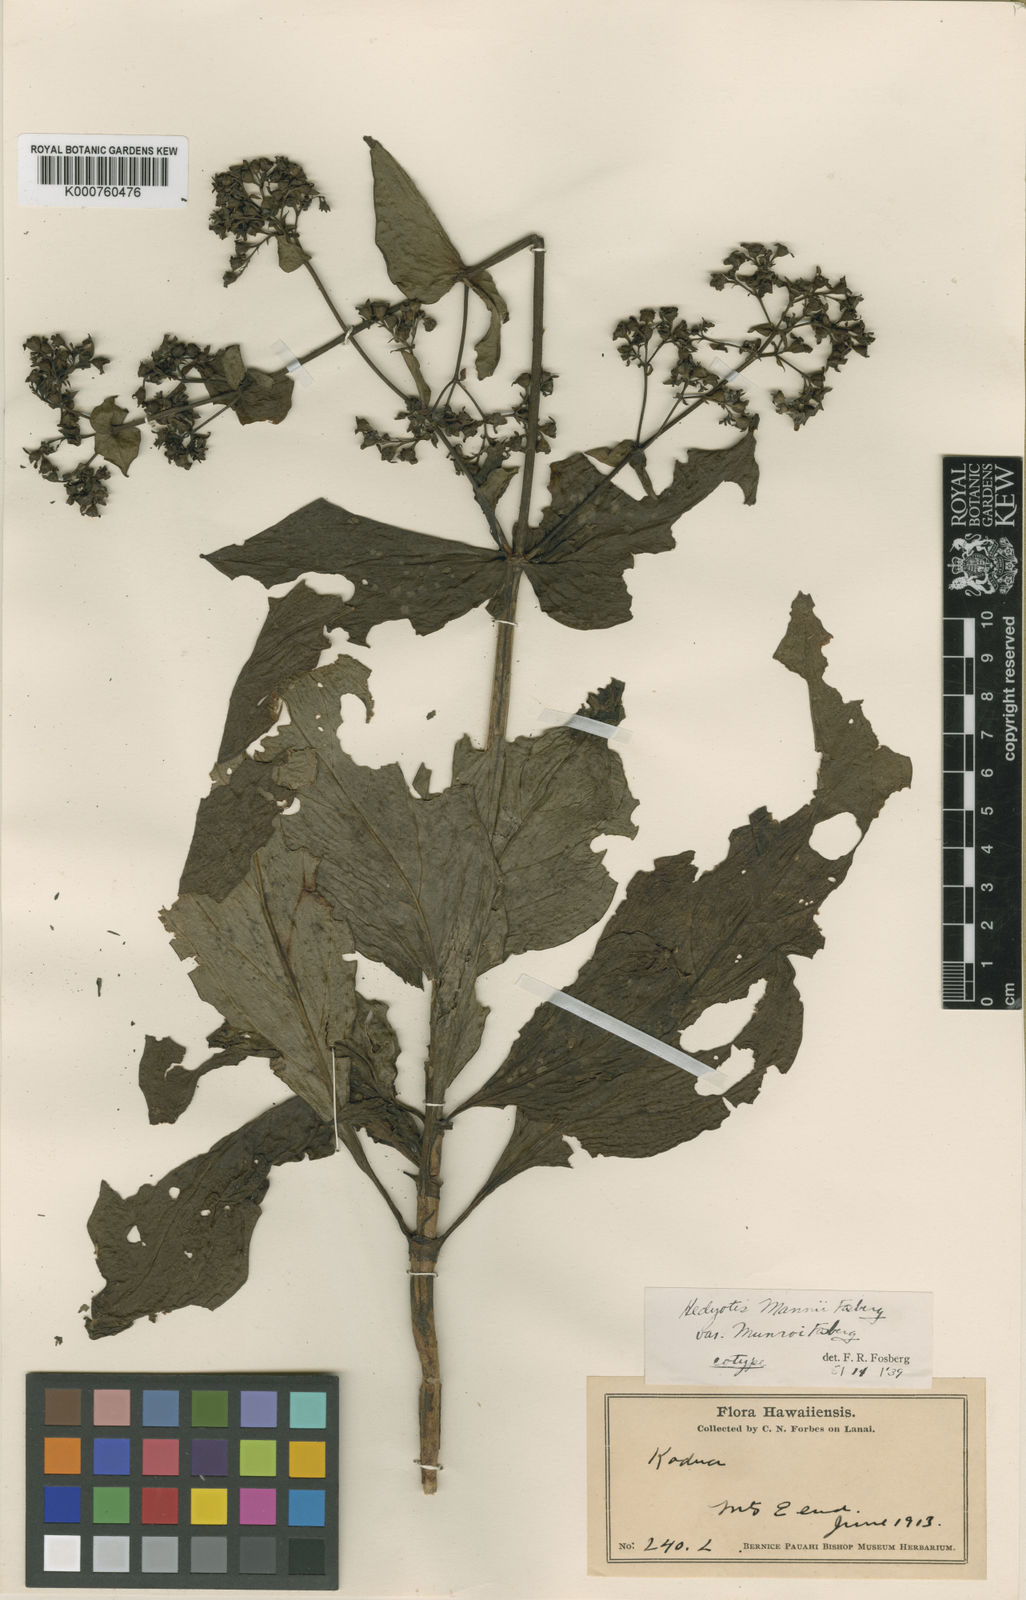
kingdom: Plantae
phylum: Tracheophyta
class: Magnoliopsida
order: Gentianales
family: Rubiaceae
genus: Kadua
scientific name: Kadua laxiflora
